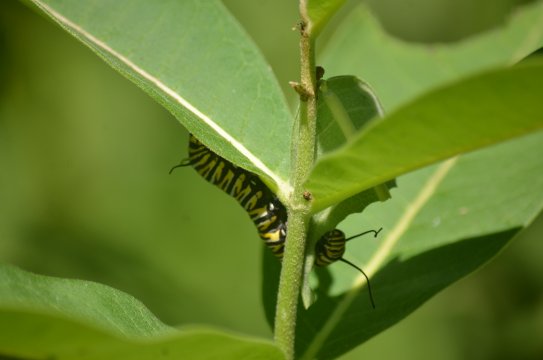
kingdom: Animalia
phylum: Arthropoda
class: Insecta
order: Lepidoptera
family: Nymphalidae
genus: Danaus
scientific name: Danaus plexippus
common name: Monarch
